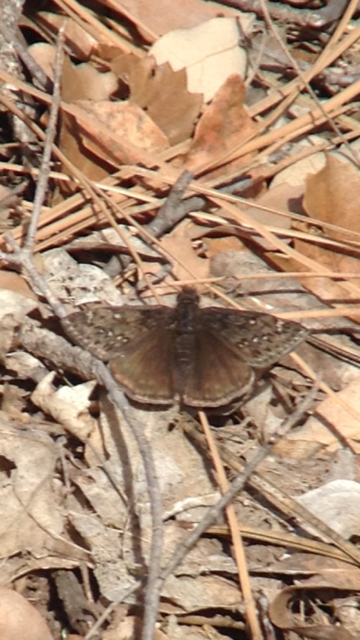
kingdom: Animalia
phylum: Arthropoda
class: Insecta
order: Lepidoptera
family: Hesperiidae
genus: Erynnis
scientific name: Erynnis
